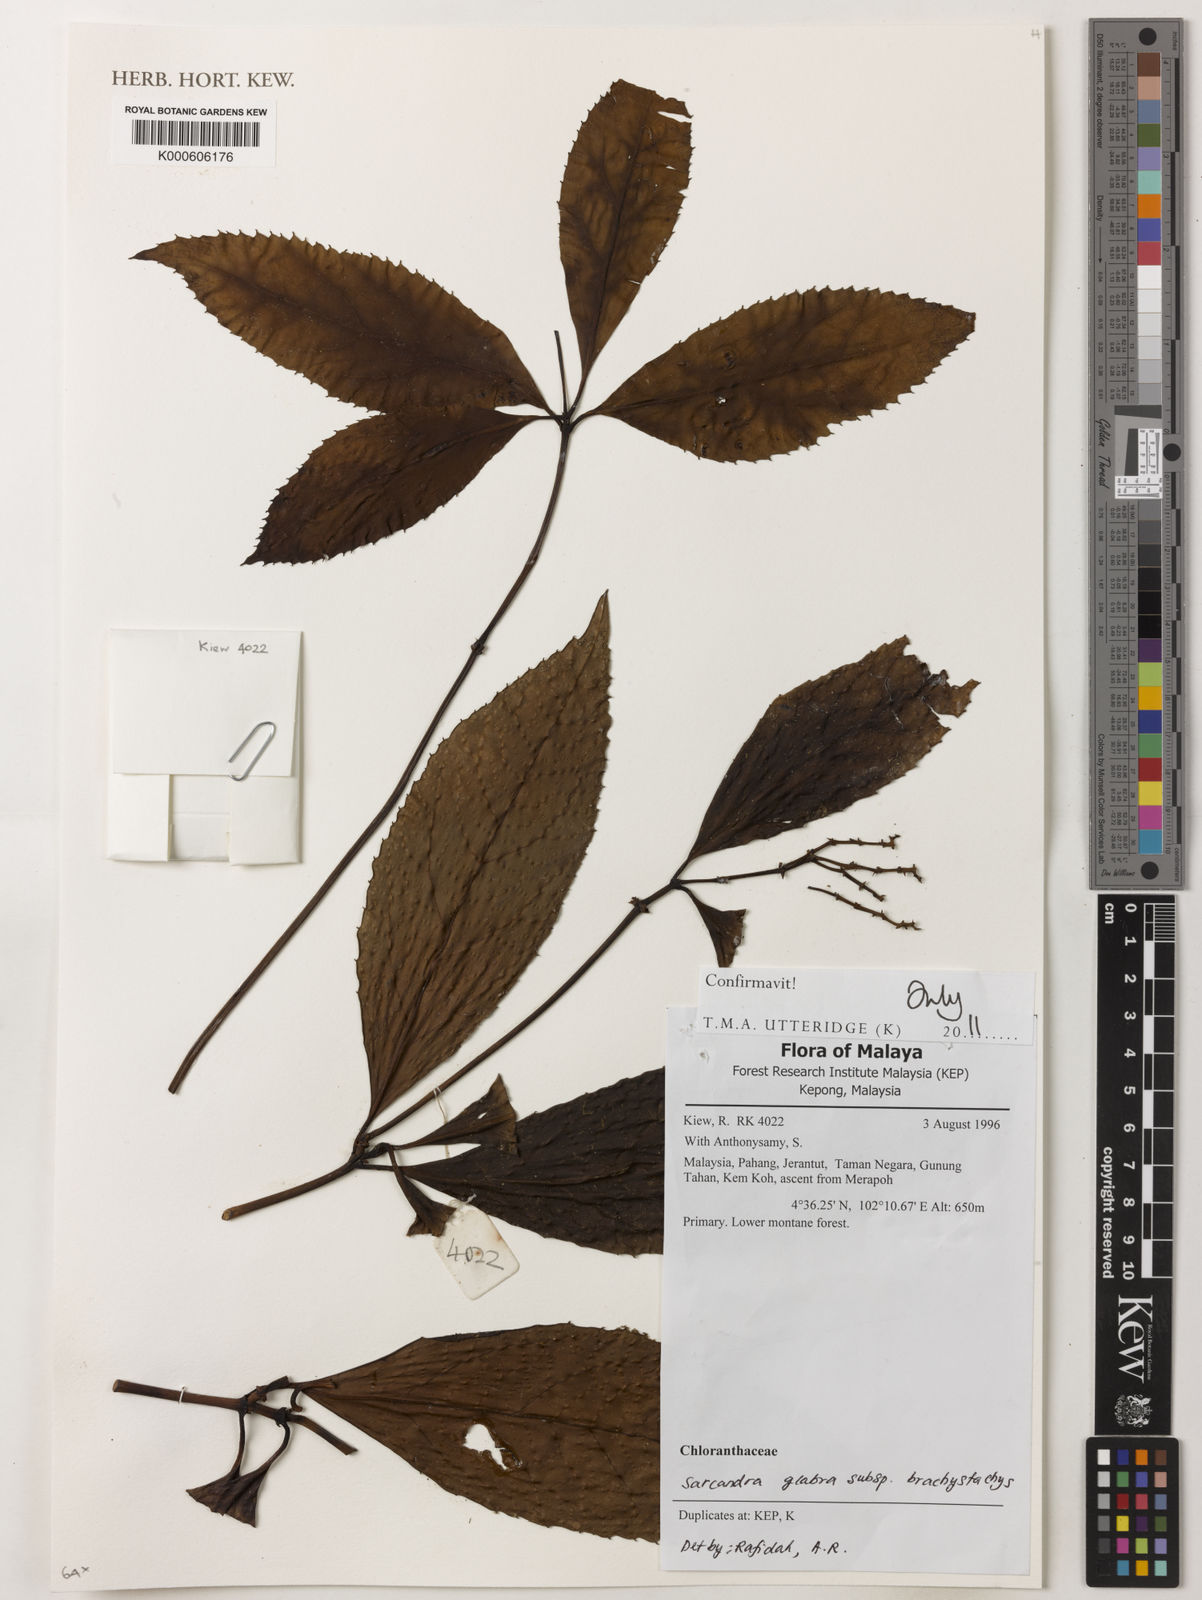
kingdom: Plantae
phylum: Tracheophyta
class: Magnoliopsida
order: Chloranthales
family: Chloranthaceae
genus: Sarcandra
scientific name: Sarcandra glabra
